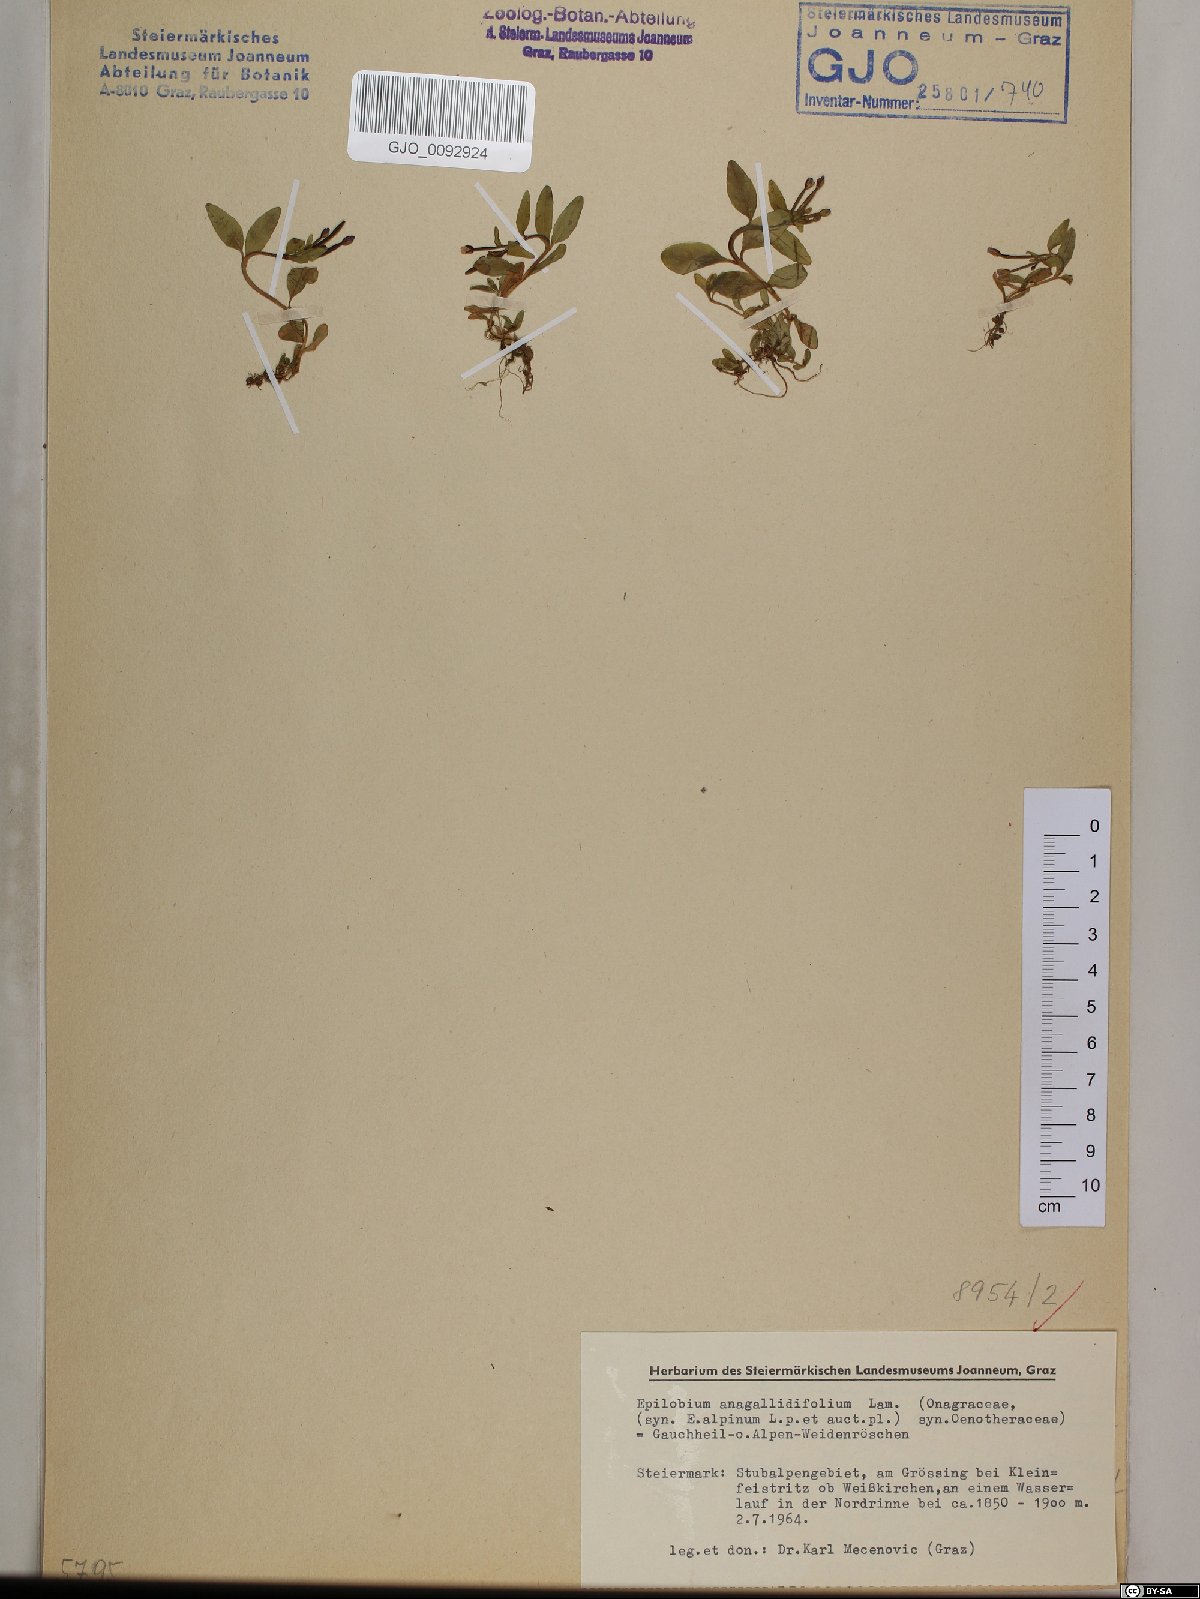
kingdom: Plantae
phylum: Tracheophyta
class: Magnoliopsida
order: Myrtales
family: Onagraceae
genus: Epilobium
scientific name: Epilobium anagallidifolium
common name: Alpine willowherb
